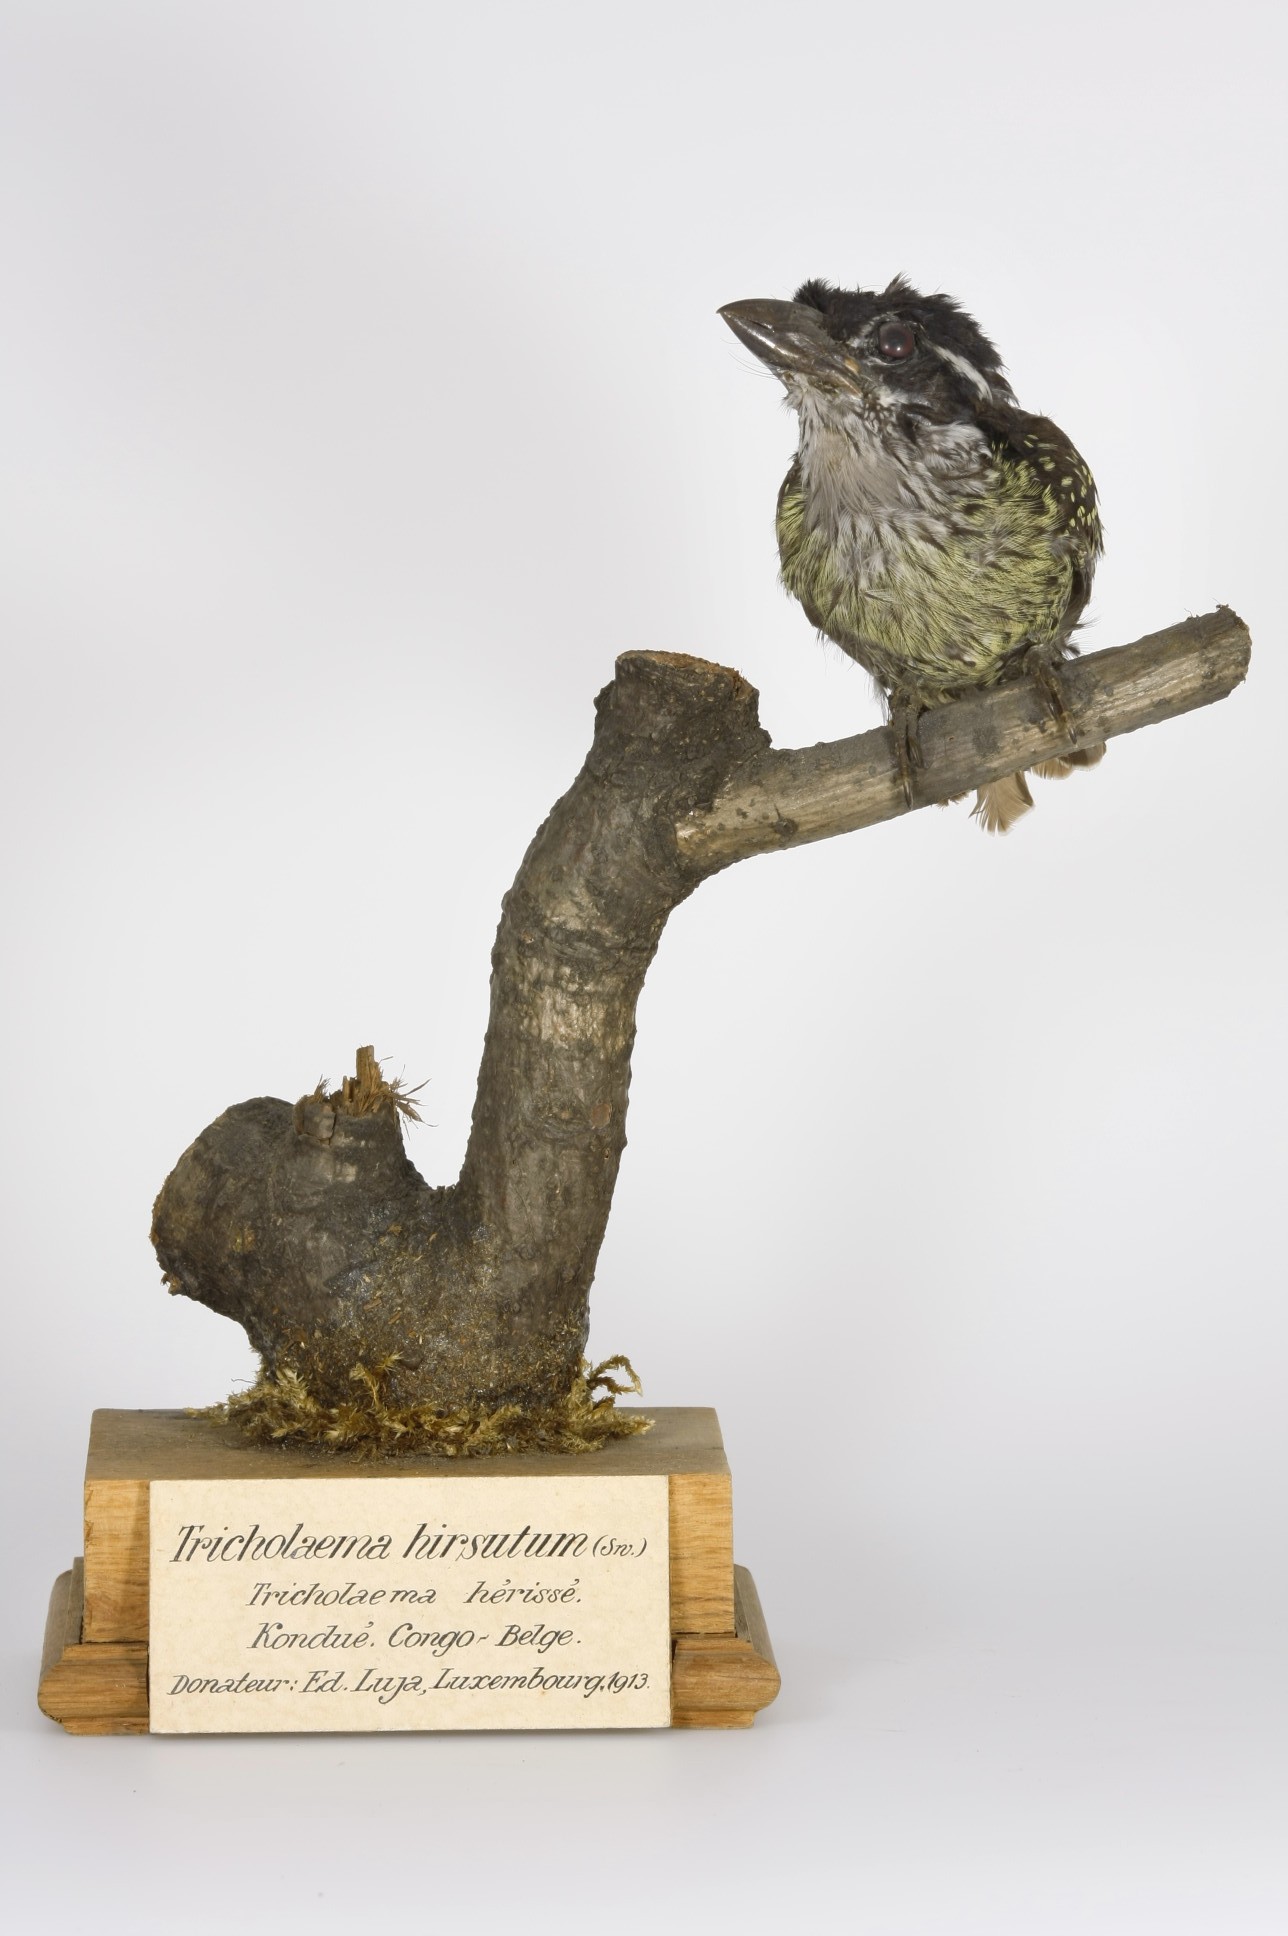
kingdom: Animalia
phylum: Chordata
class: Aves
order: Piciformes
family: Lybiidae
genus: Tricholaema
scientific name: Tricholaema hirsuta
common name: Hairy-breasted barbet
